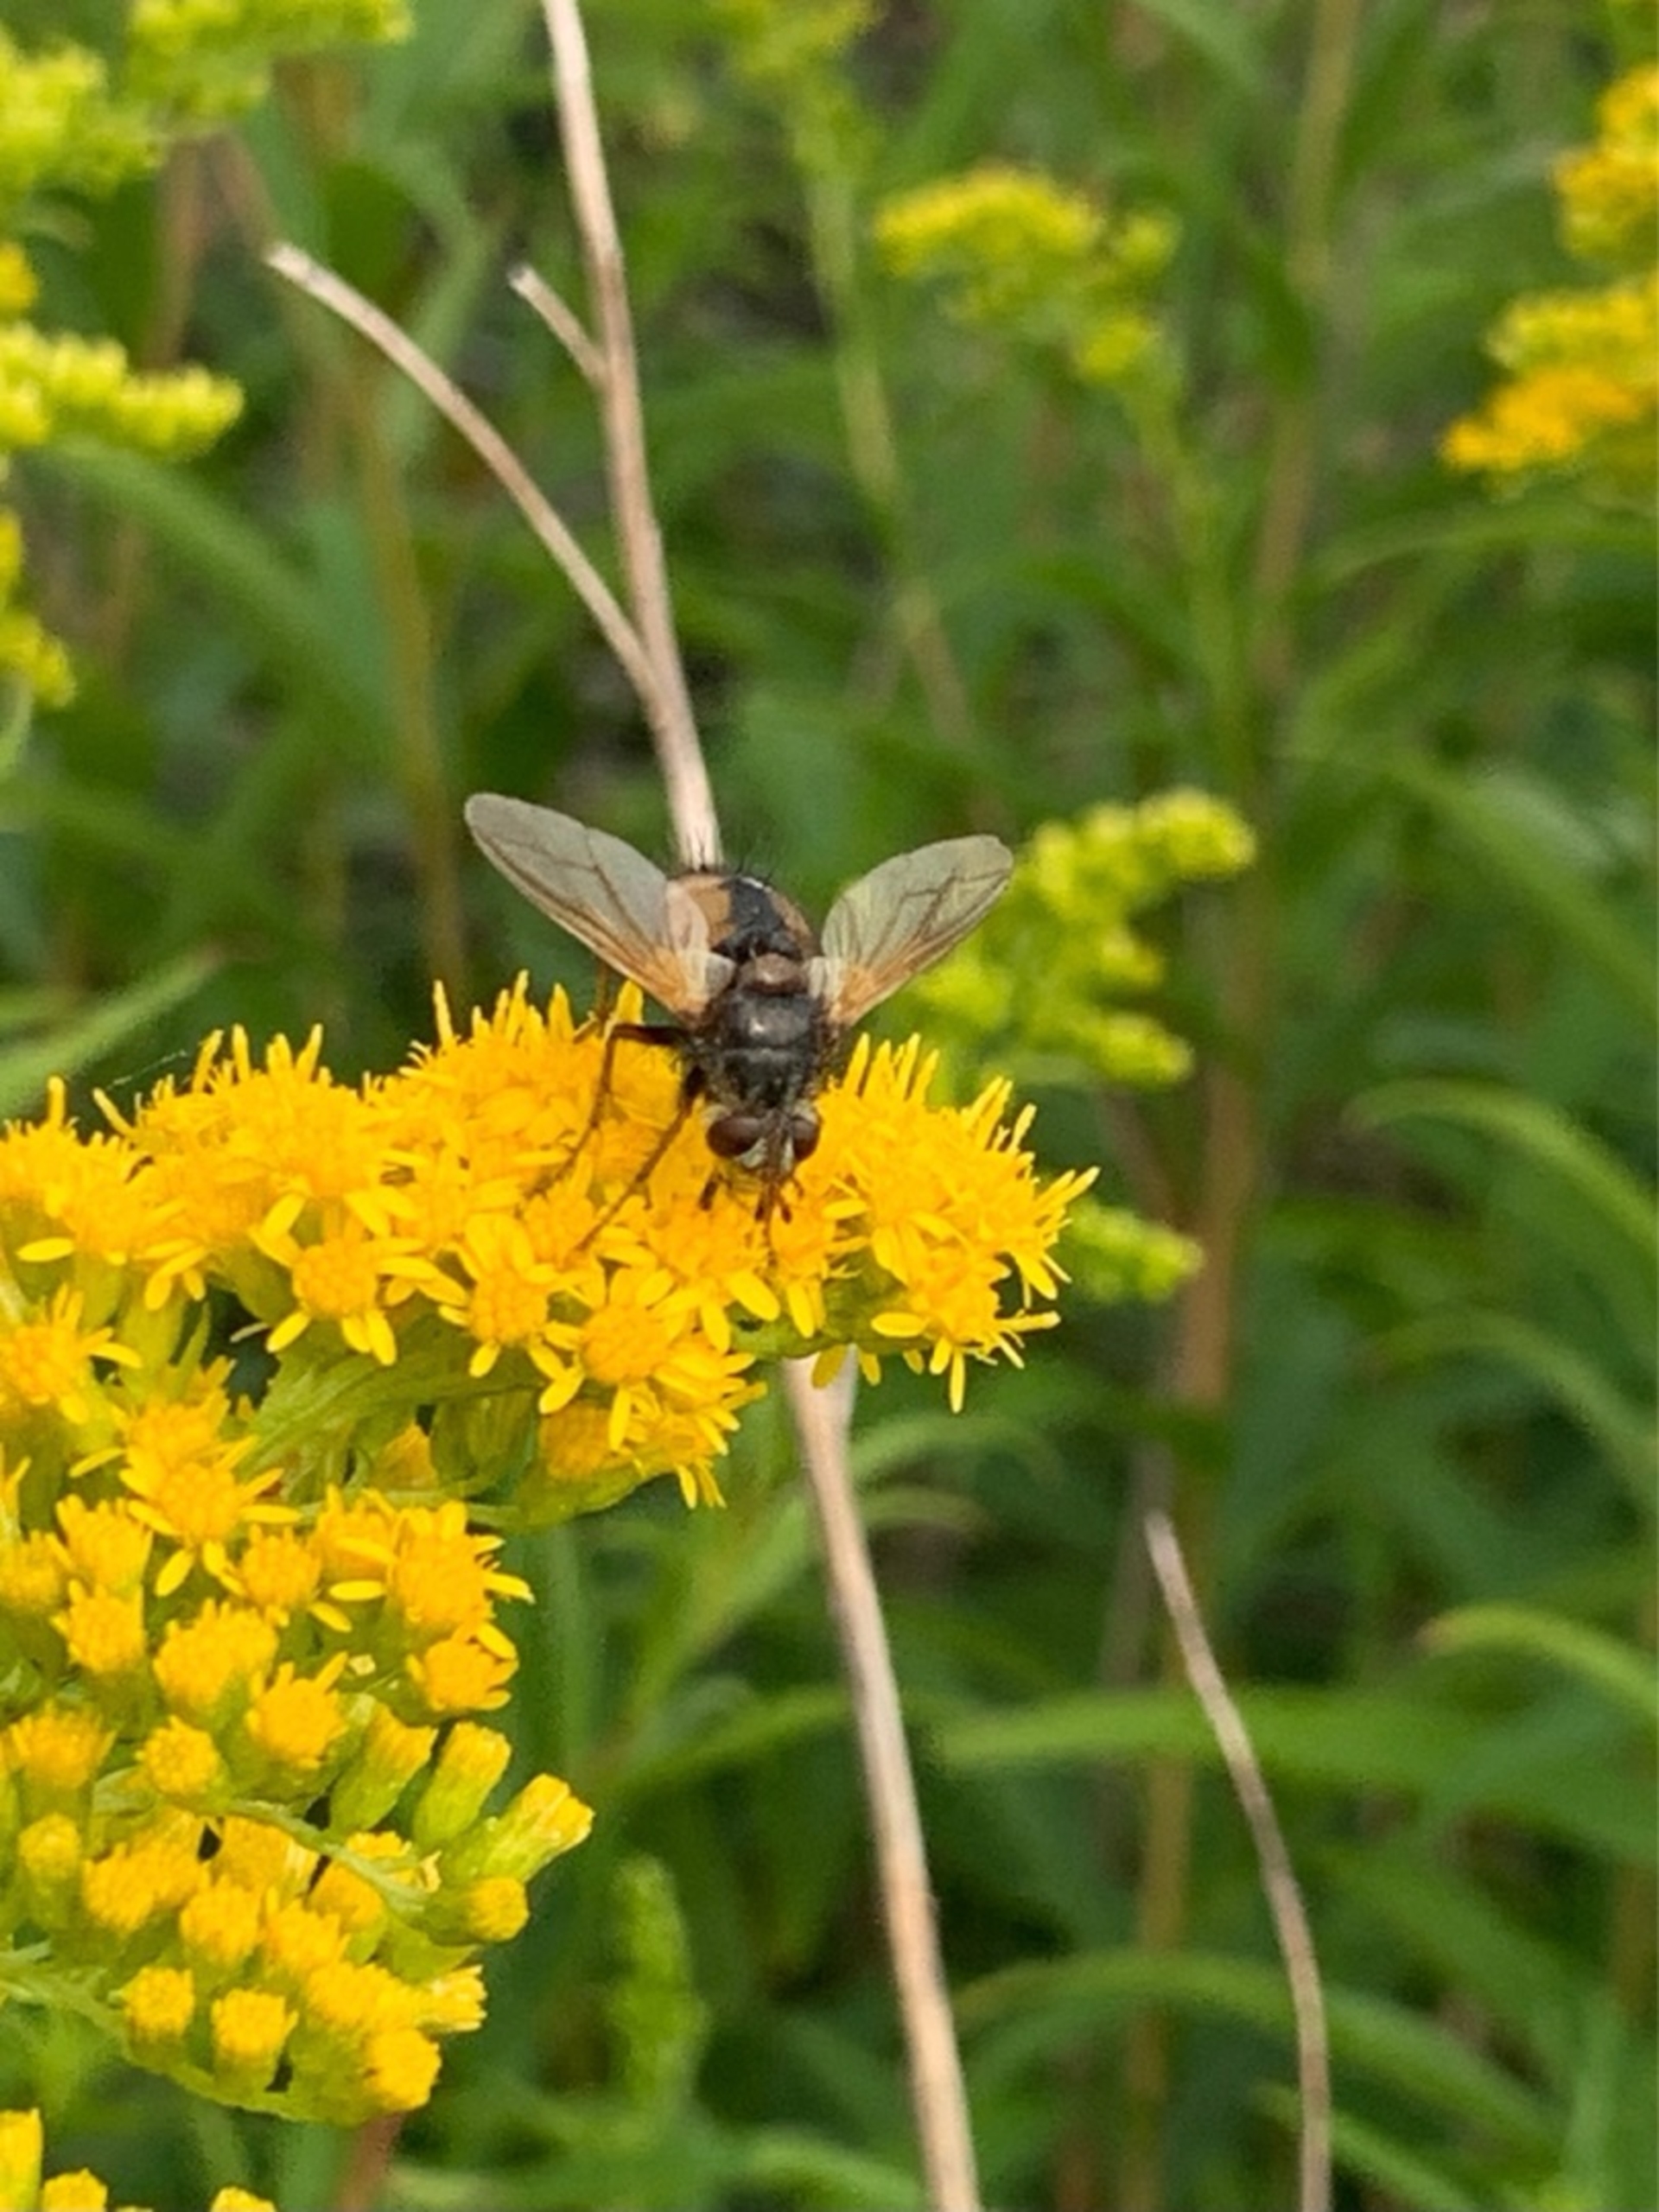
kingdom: Animalia
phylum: Arthropoda
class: Insecta
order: Diptera
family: Tachinidae
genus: Tachina
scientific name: Tachina fera
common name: Mellemfluen oskar
